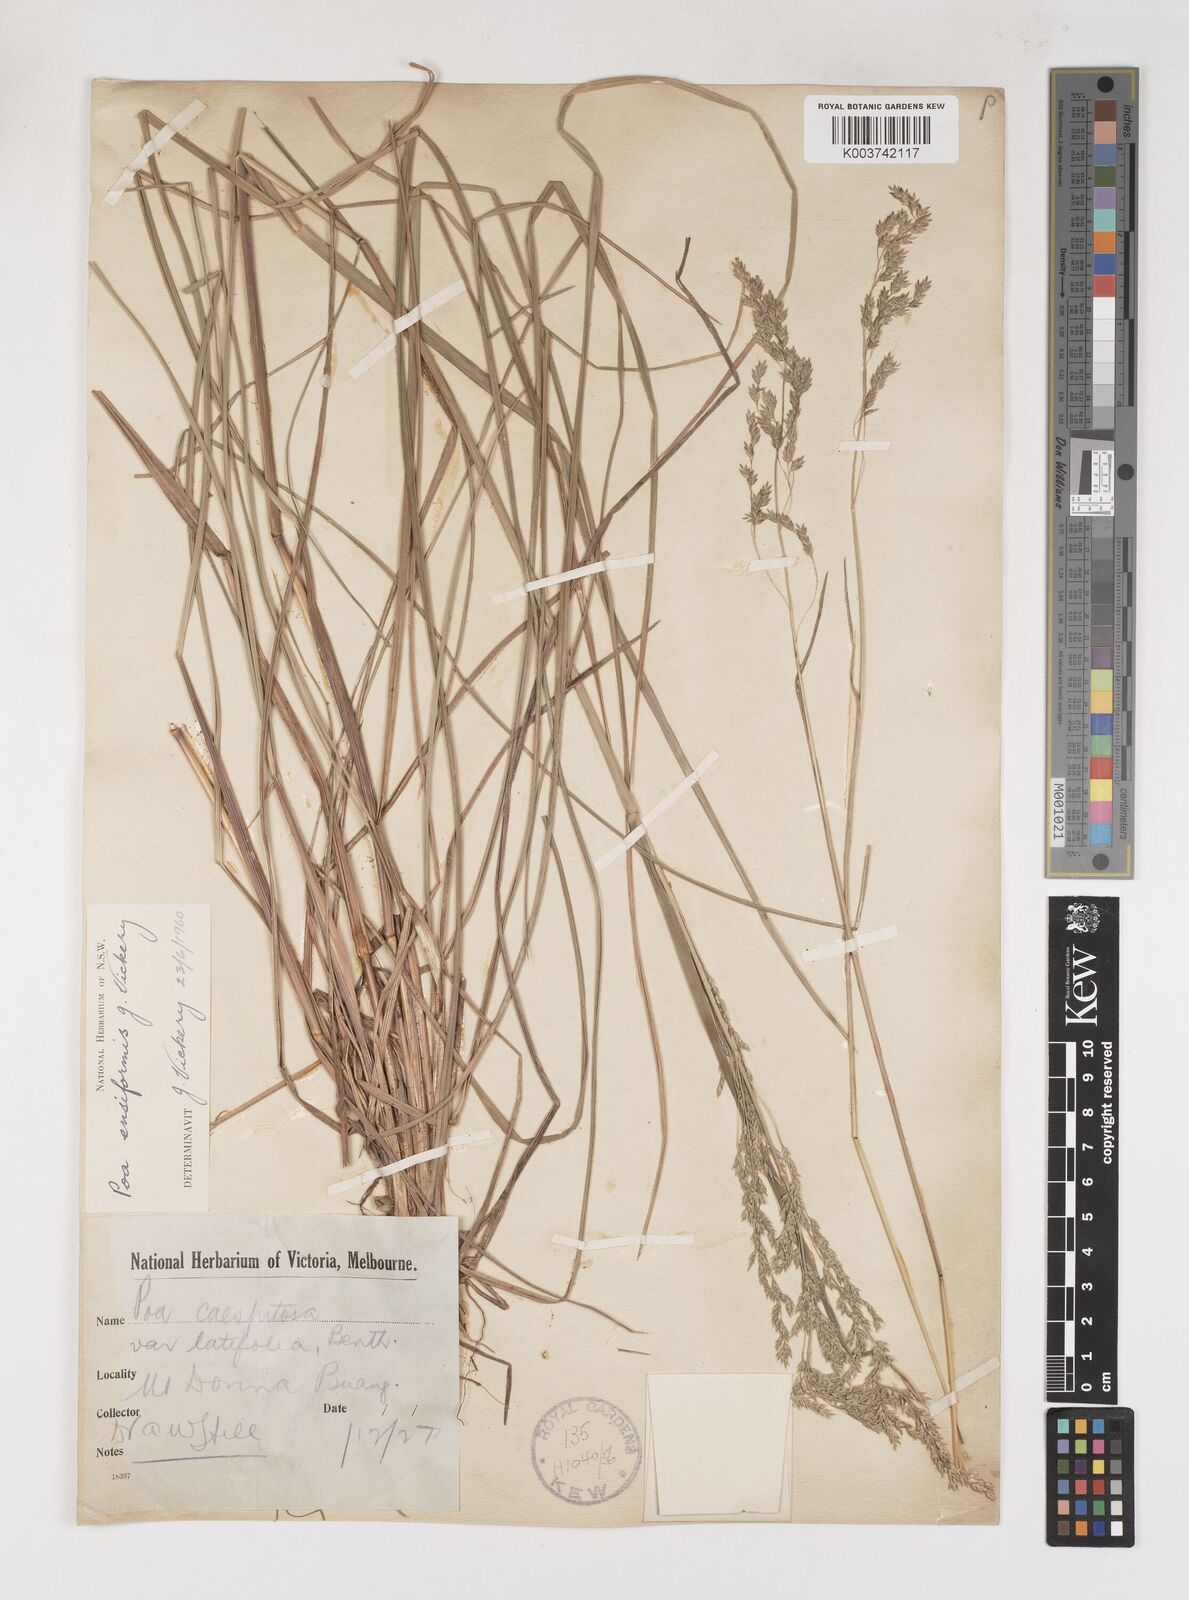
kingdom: Plantae
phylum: Tracheophyta
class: Liliopsida
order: Poales
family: Poaceae
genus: Poa
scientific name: Poa ensiformis
